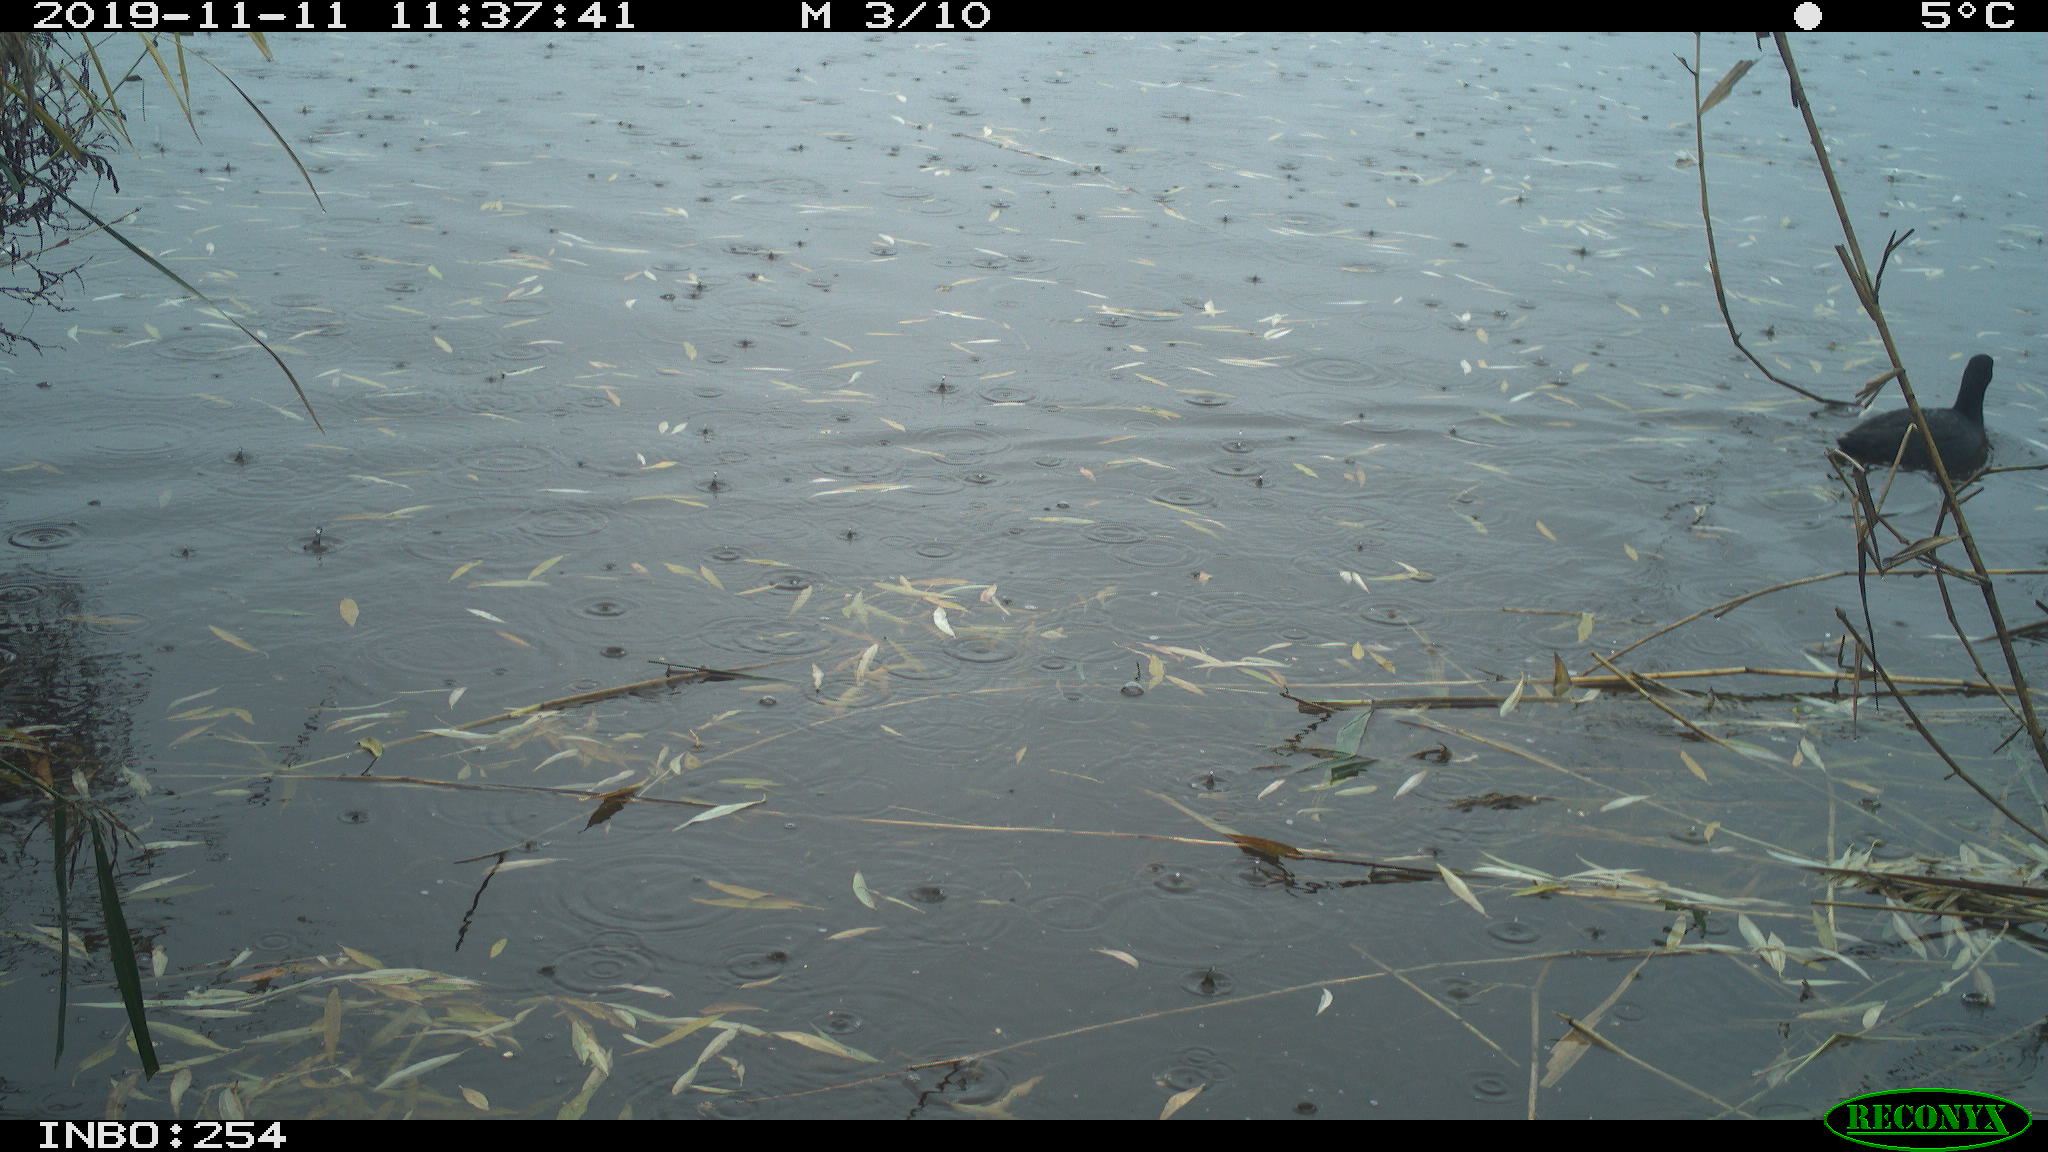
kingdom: Animalia
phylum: Chordata
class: Aves
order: Gruiformes
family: Rallidae
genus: Fulica
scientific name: Fulica atra
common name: Eurasian coot
